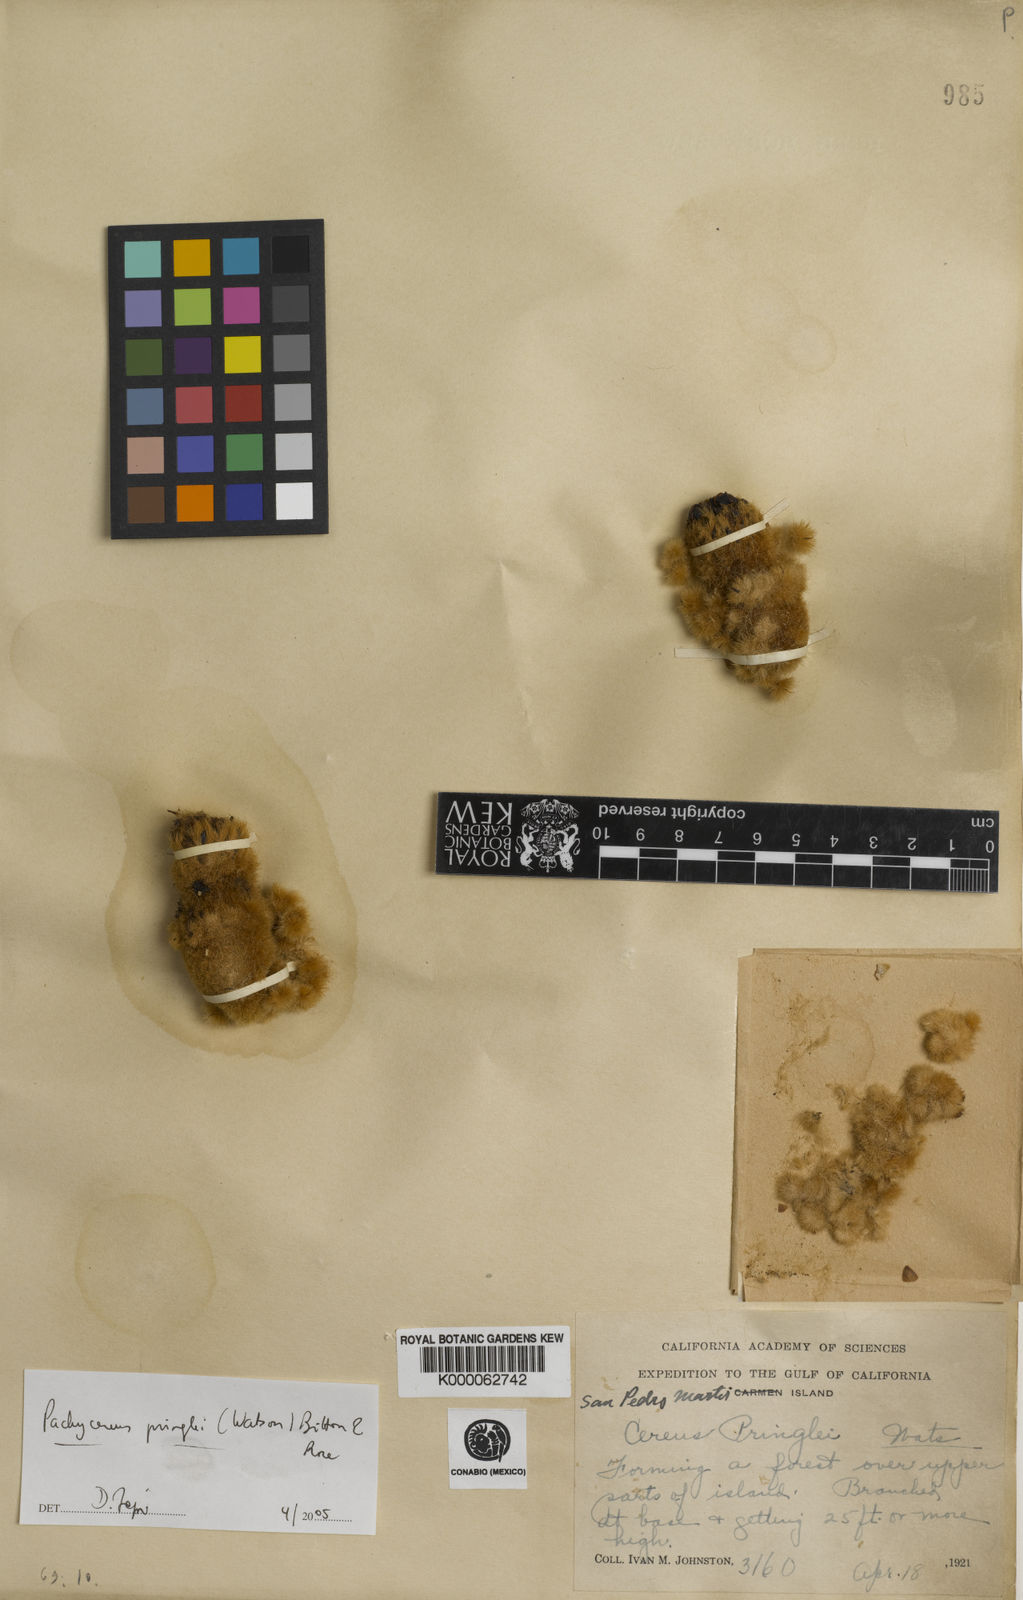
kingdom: Plantae
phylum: Tracheophyta
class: Magnoliopsida
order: Caryophyllales
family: Cactaceae
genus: Pachycereus
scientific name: Pachycereus pringlei
